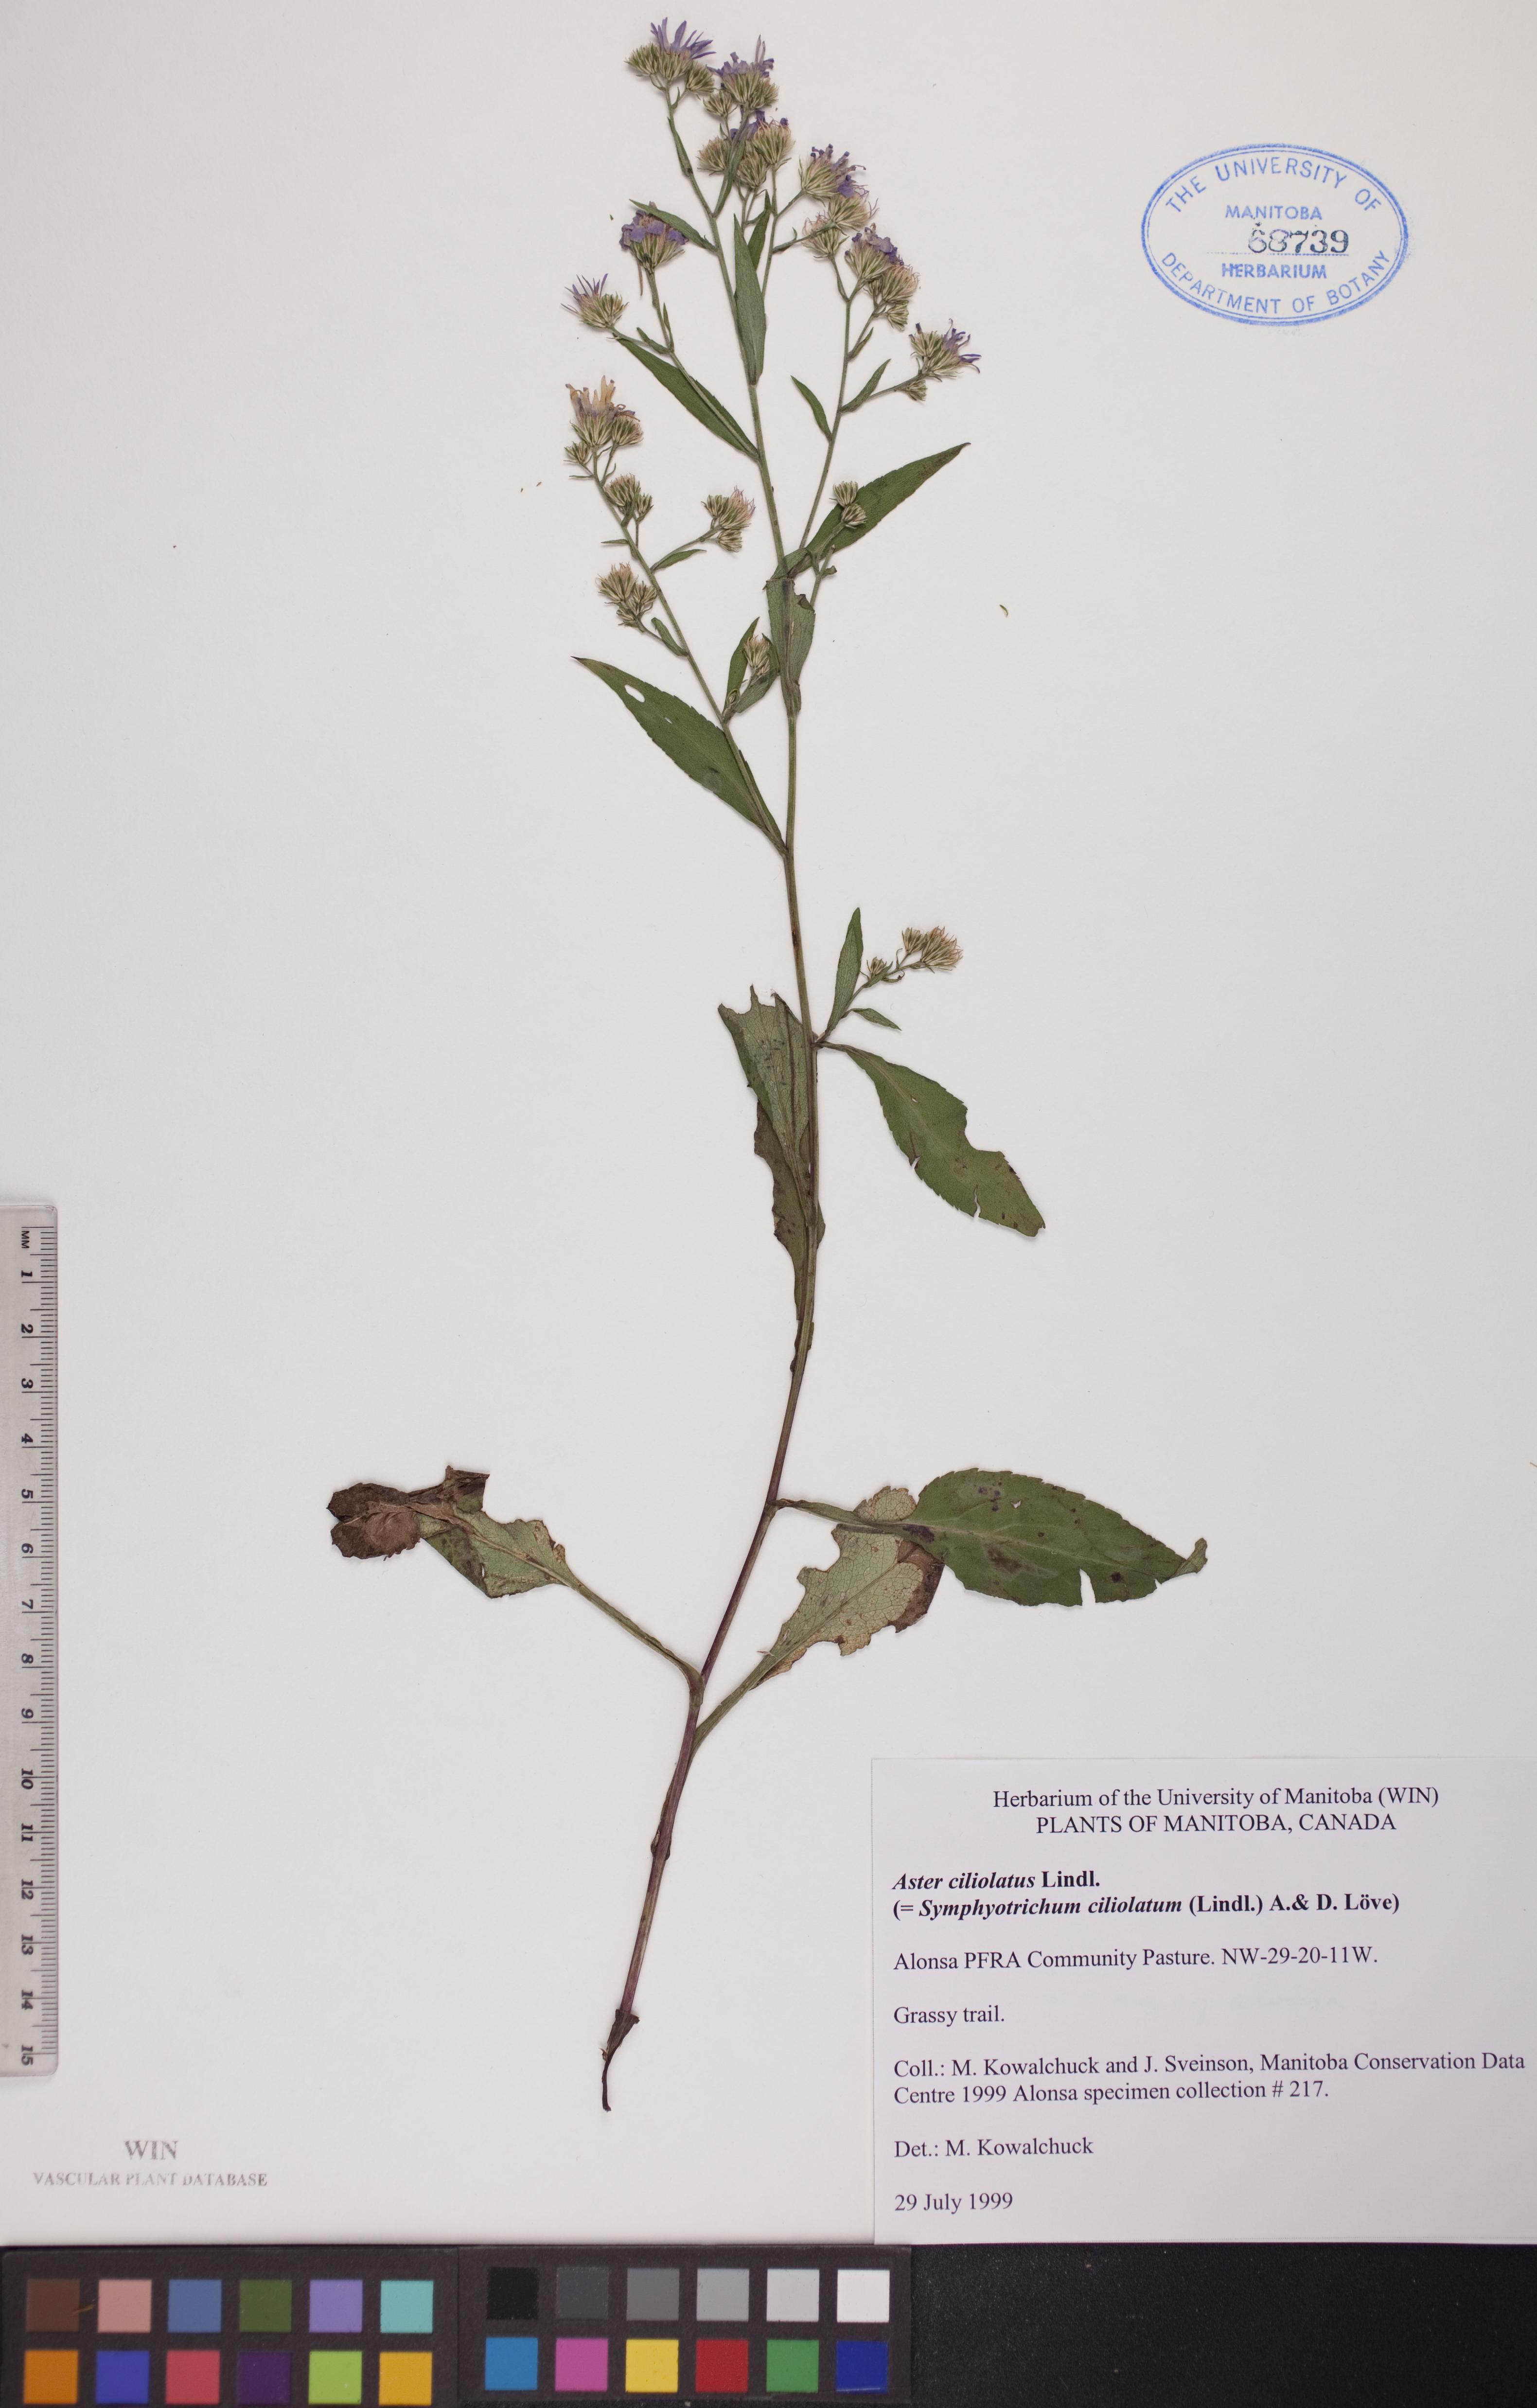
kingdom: Plantae
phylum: Tracheophyta
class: Magnoliopsida
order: Asterales
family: Asteraceae
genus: Symphyotrichum
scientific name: Symphyotrichum ciliolatum
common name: Fringed blue aster
